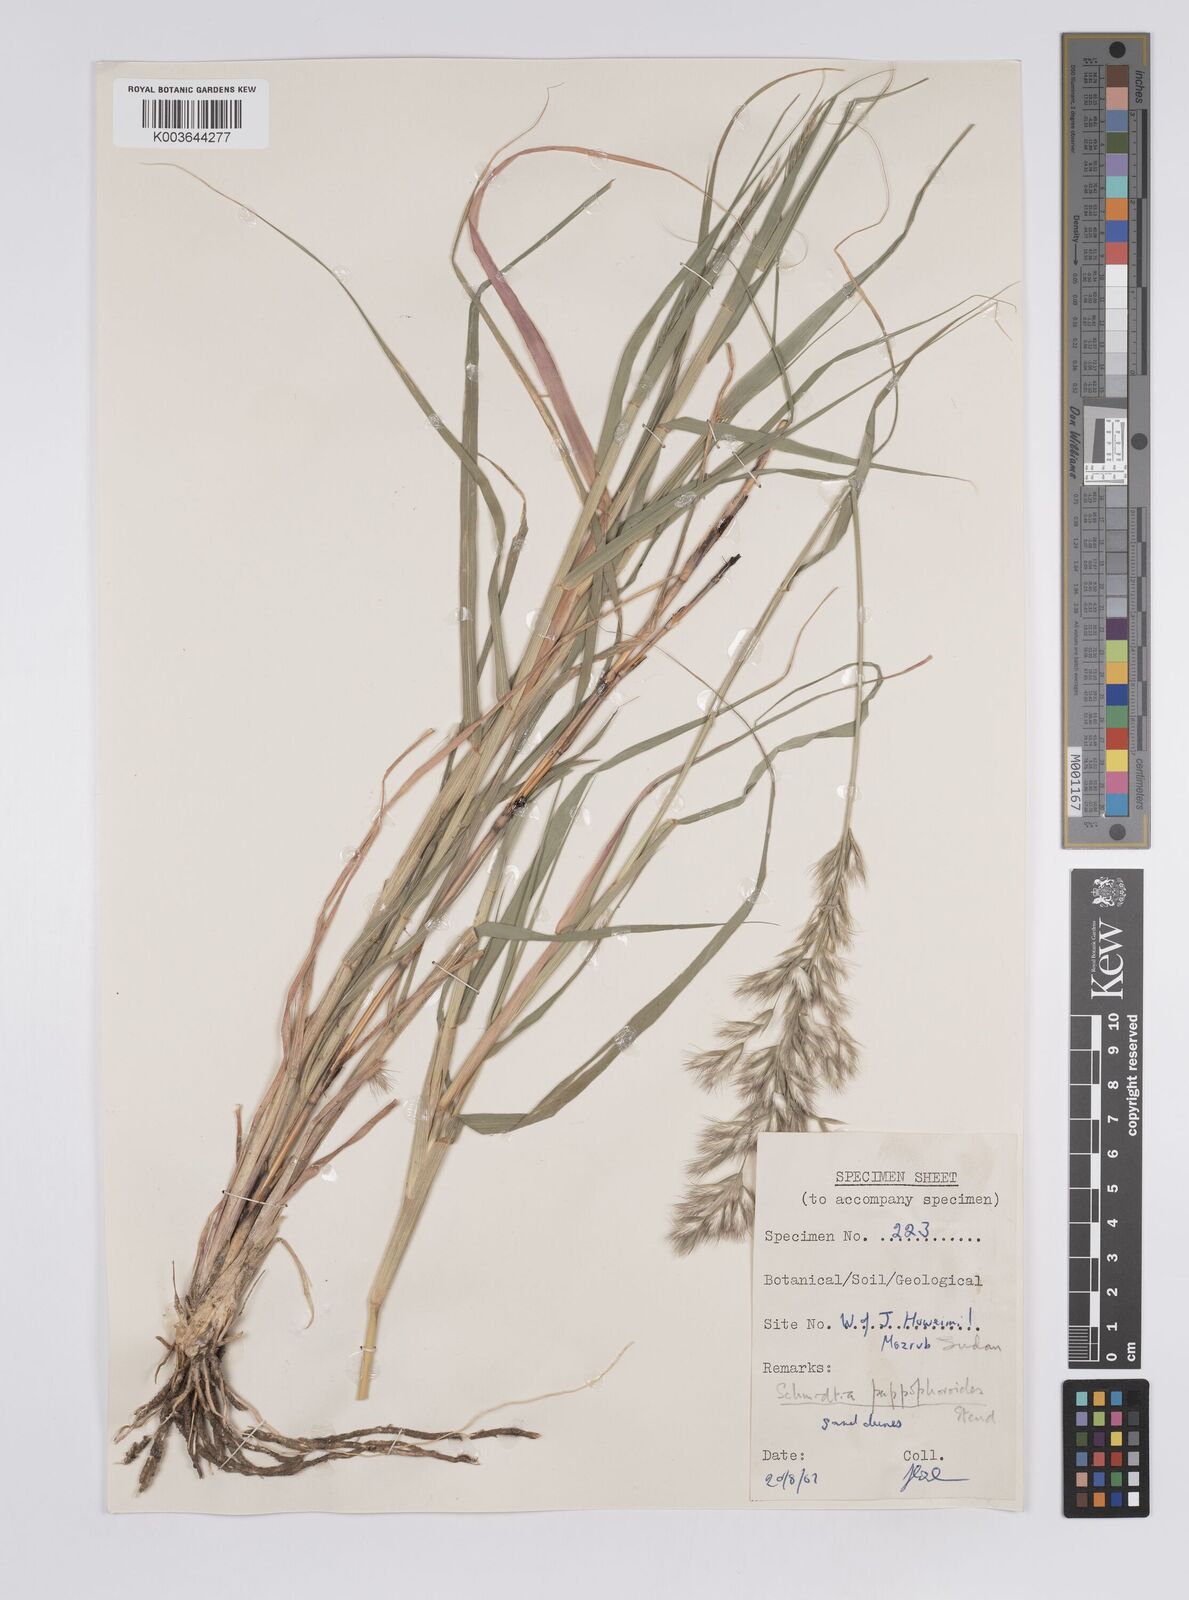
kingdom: Plantae
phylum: Tracheophyta
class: Liliopsida
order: Poales
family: Poaceae
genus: Schmidtia
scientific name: Schmidtia pappophoroides
